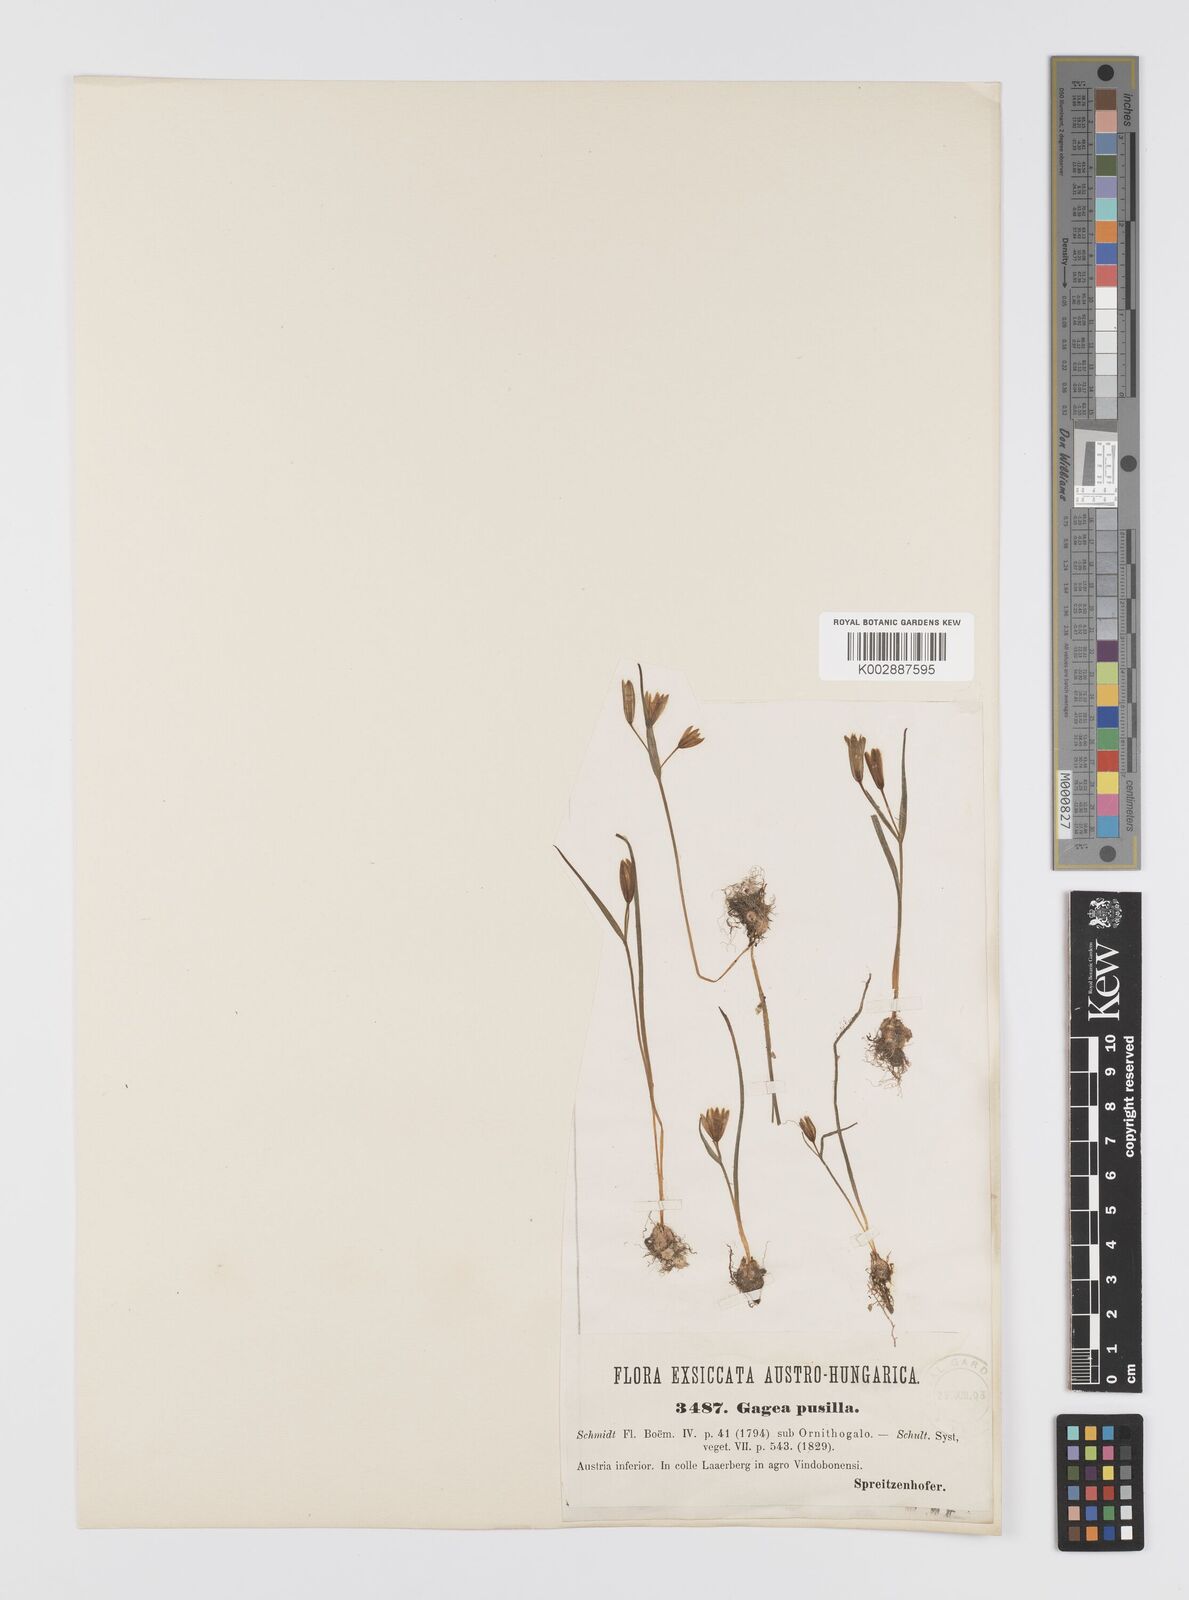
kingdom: Plantae
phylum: Tracheophyta
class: Liliopsida
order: Liliales
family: Liliaceae
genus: Gagea
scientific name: Gagea pusilla
